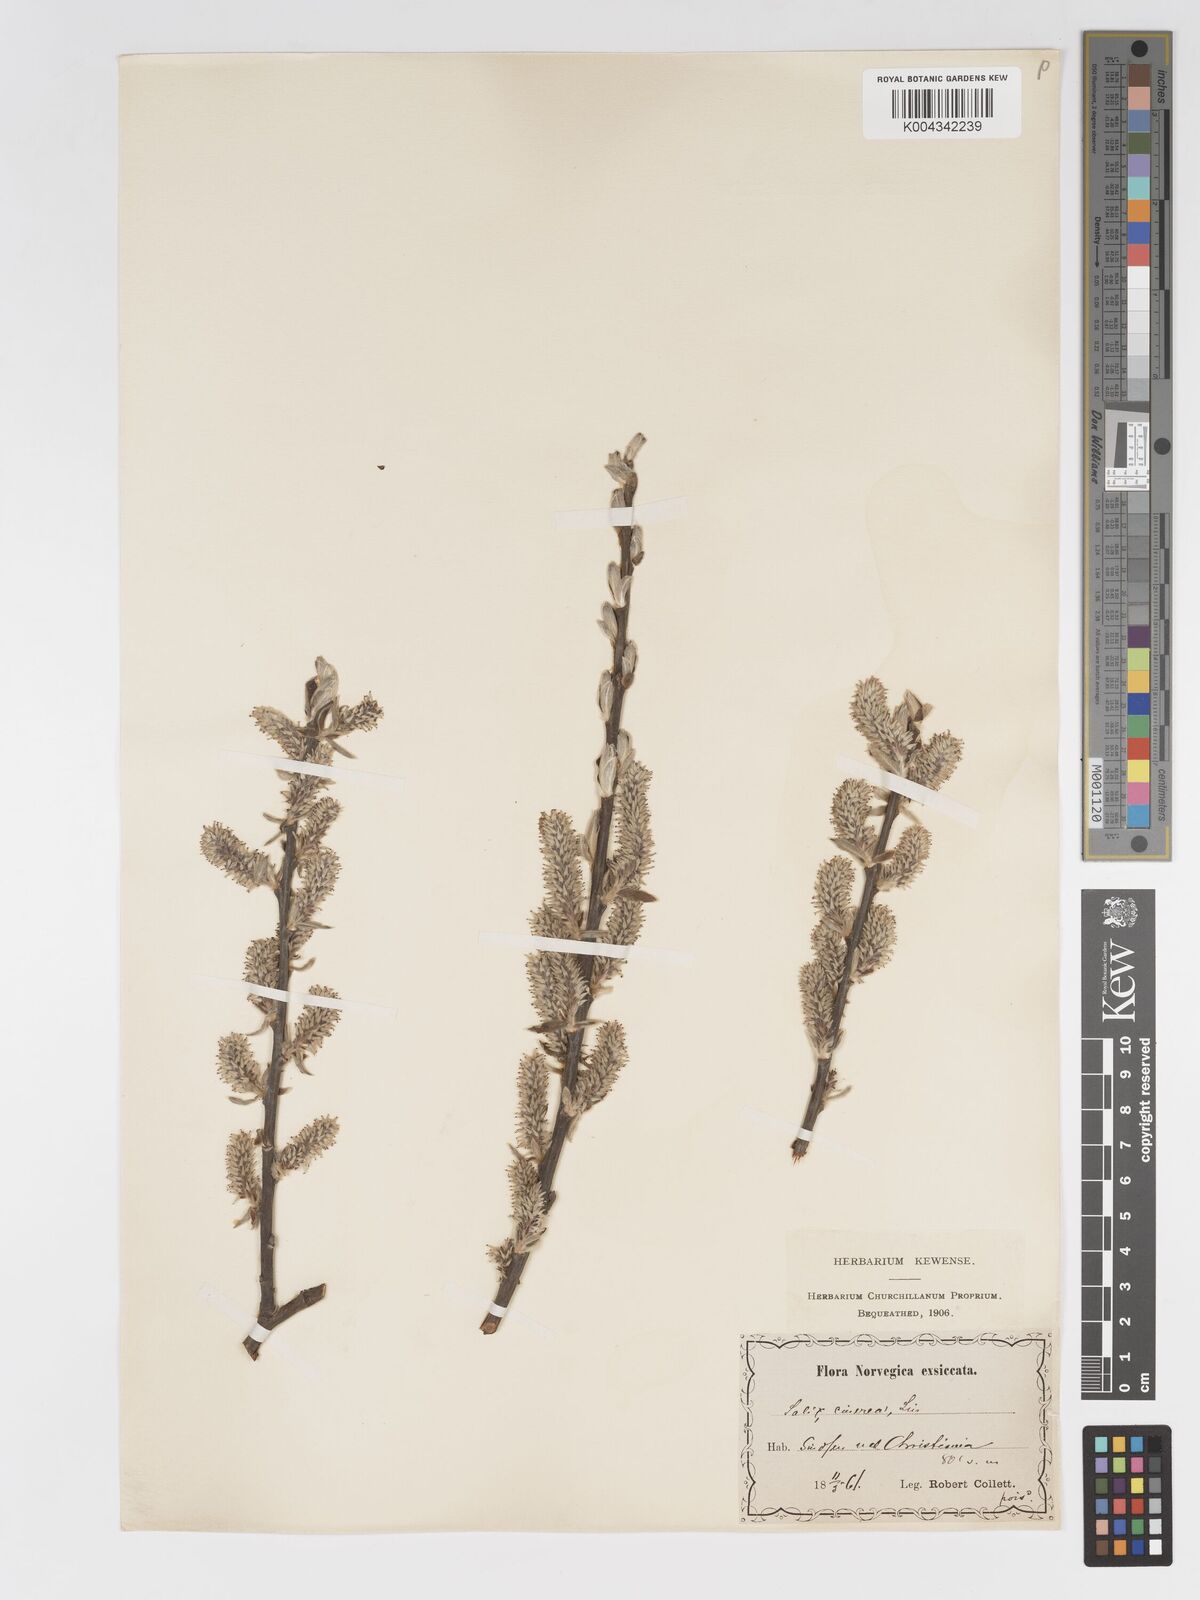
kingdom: Plantae
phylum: Tracheophyta
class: Magnoliopsida
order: Malpighiales
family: Salicaceae
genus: Salix
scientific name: Salix
